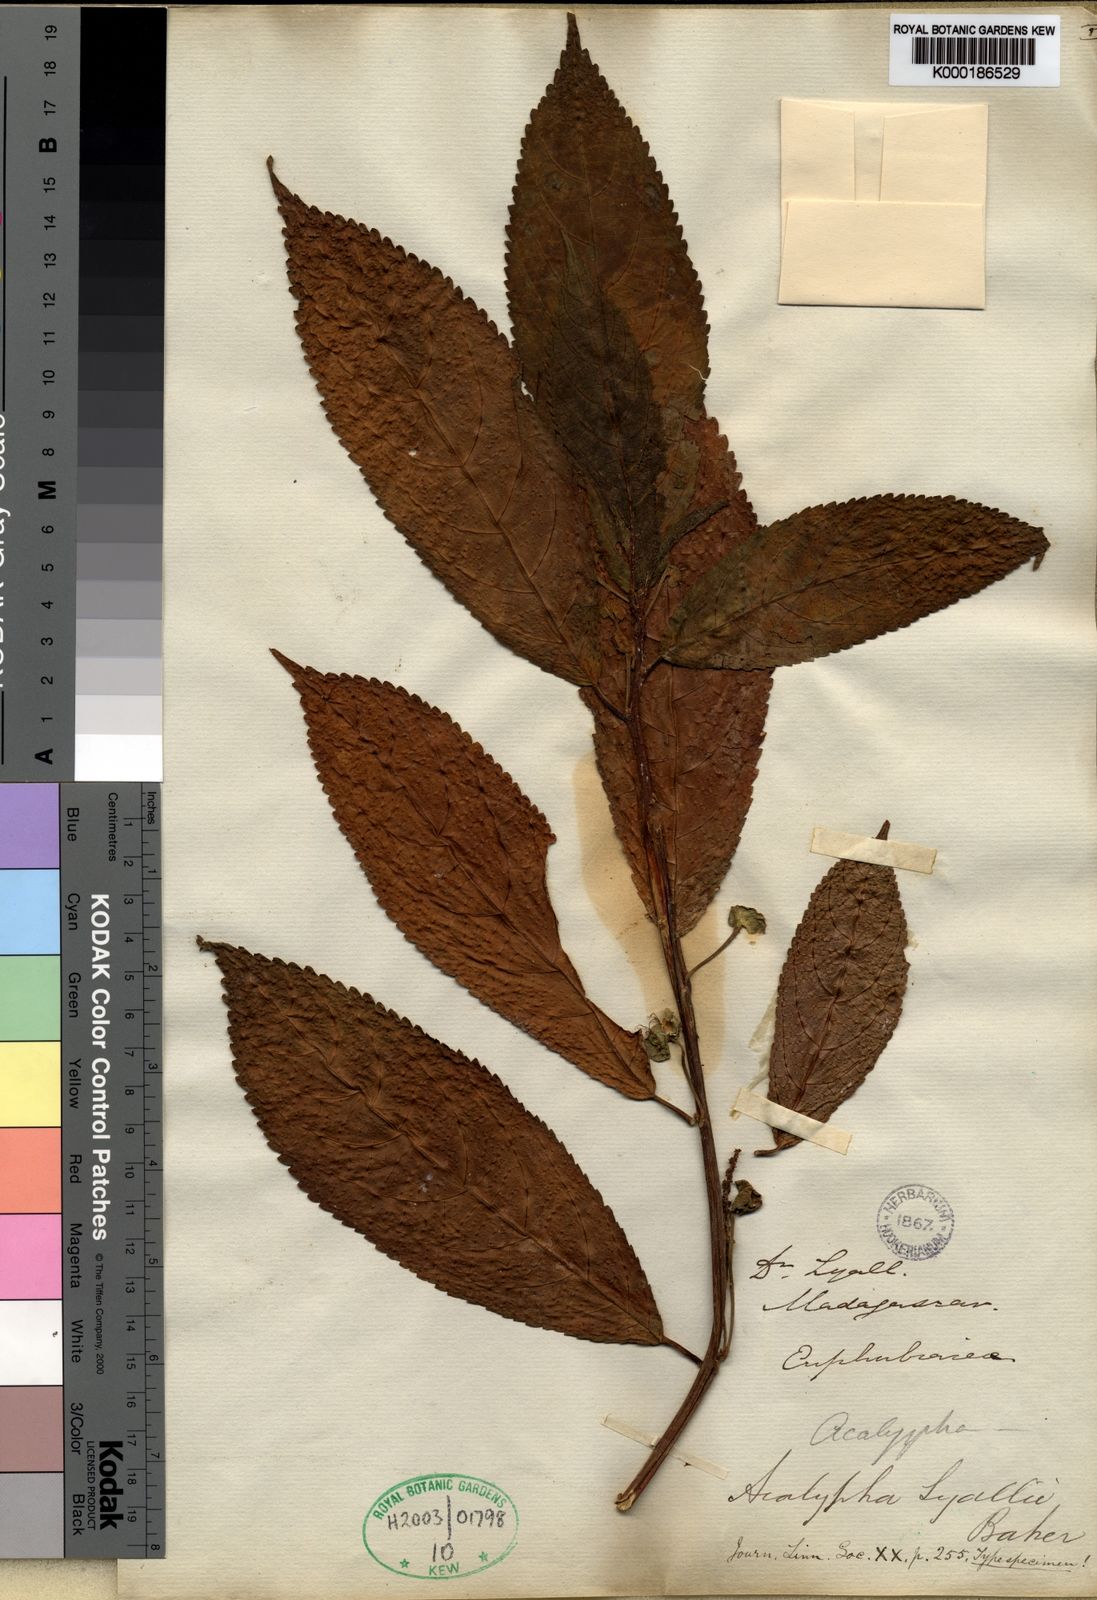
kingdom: Plantae
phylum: Tracheophyta
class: Magnoliopsida
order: Malpighiales
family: Euphorbiaceae
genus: Acalypha
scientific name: Acalypha fasciculata
